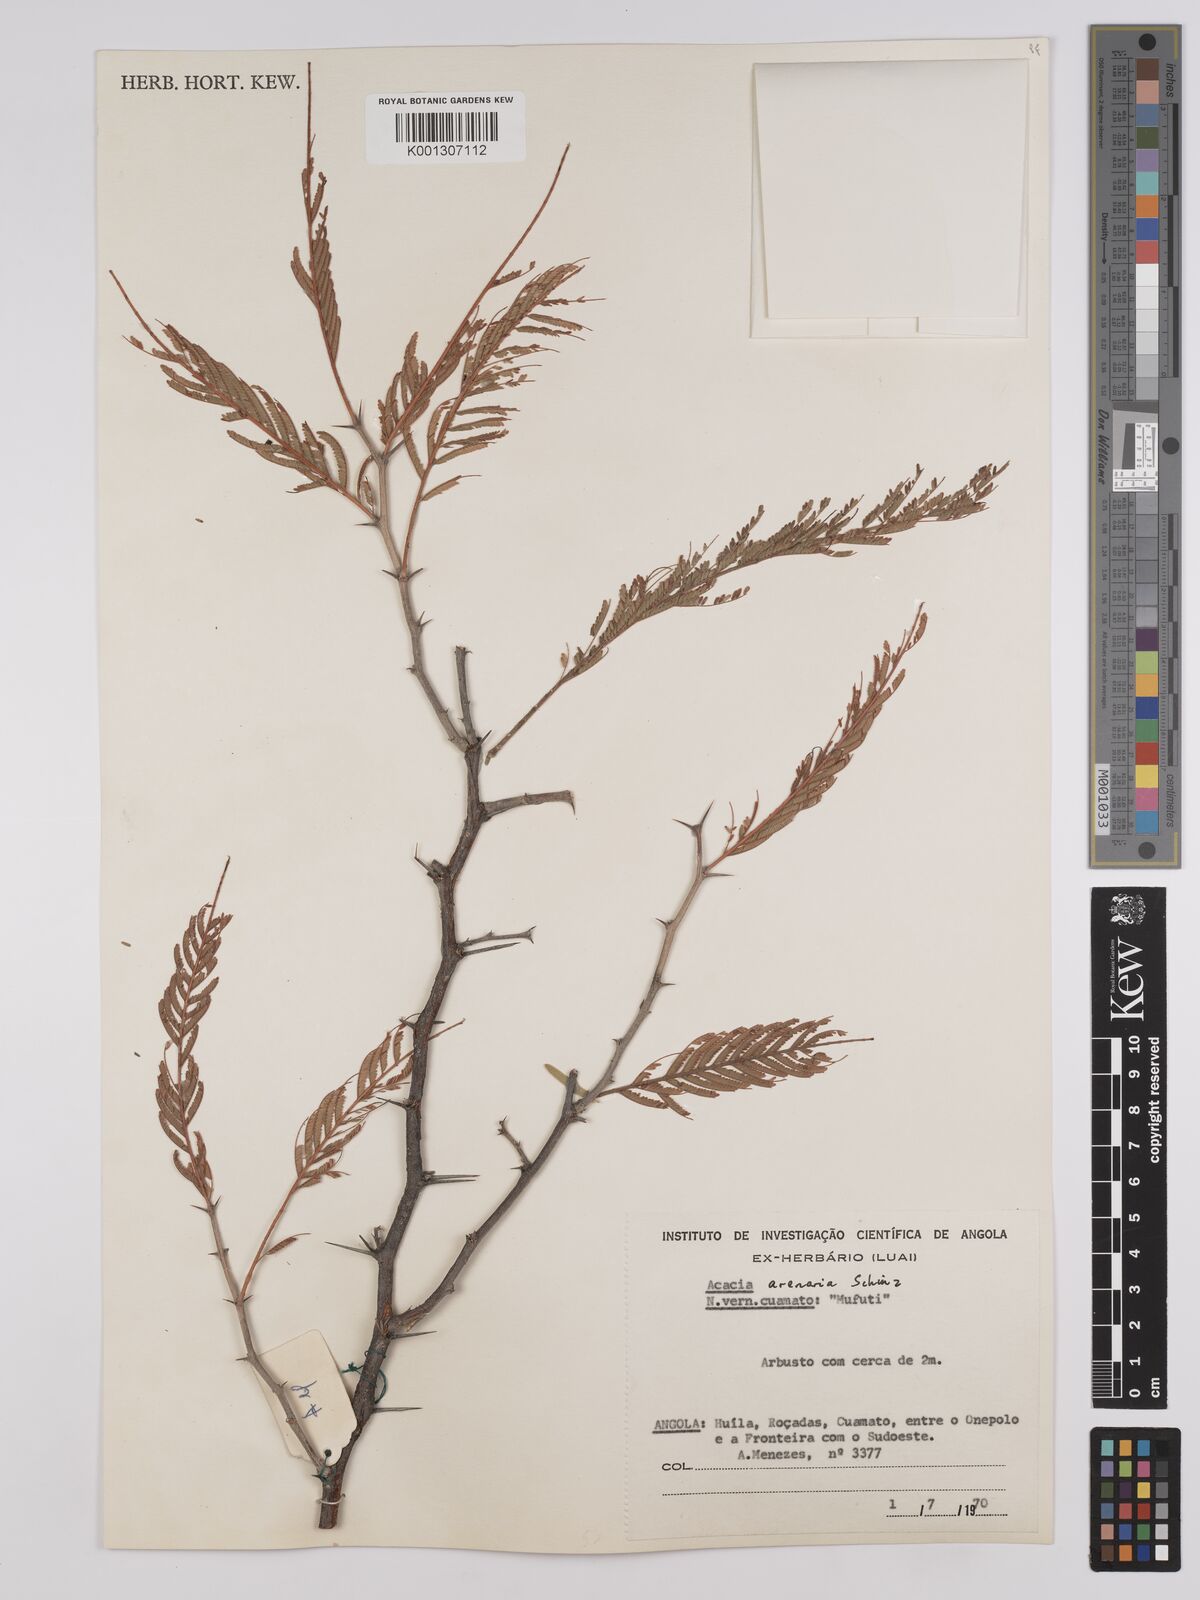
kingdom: Plantae
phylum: Tracheophyta
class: Magnoliopsida
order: Fabales
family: Fabaceae
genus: Vachellia
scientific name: Vachellia arenaria
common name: Sand acacia
